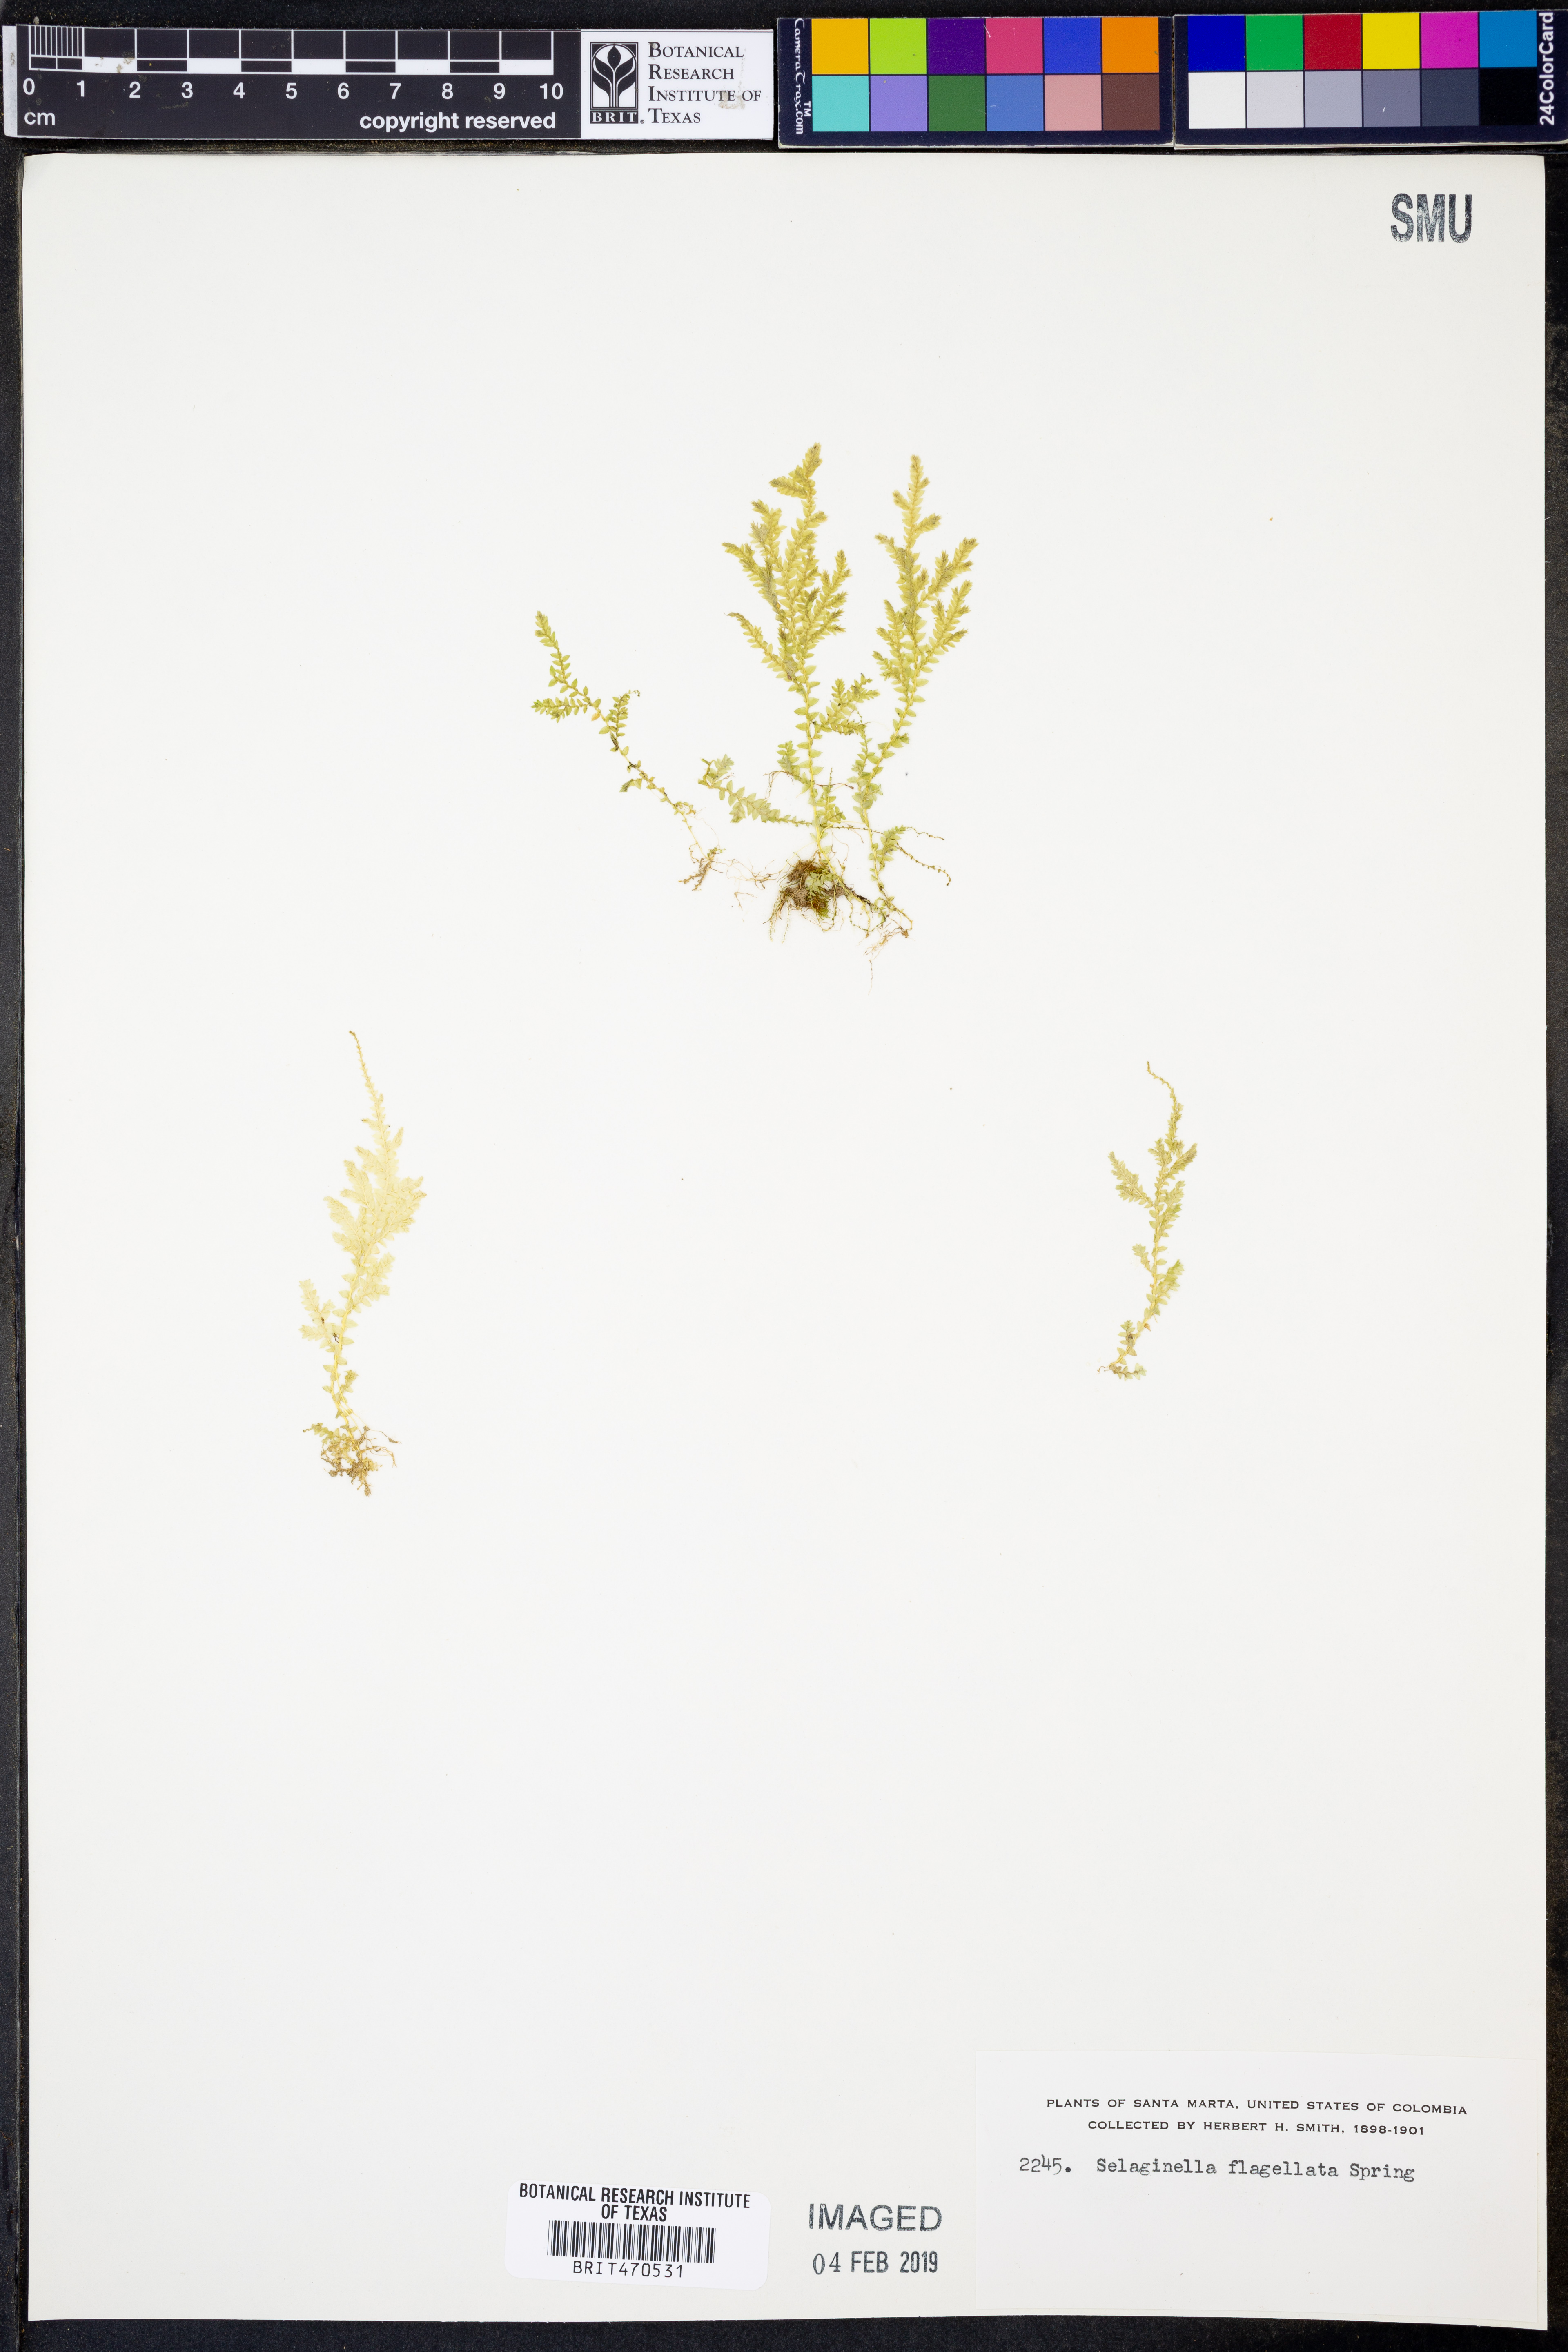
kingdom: Plantae
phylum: Tracheophyta
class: Lycopodiopsida
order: Selaginellales
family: Selaginellaceae
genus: Selaginella
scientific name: Selaginella flagellata
